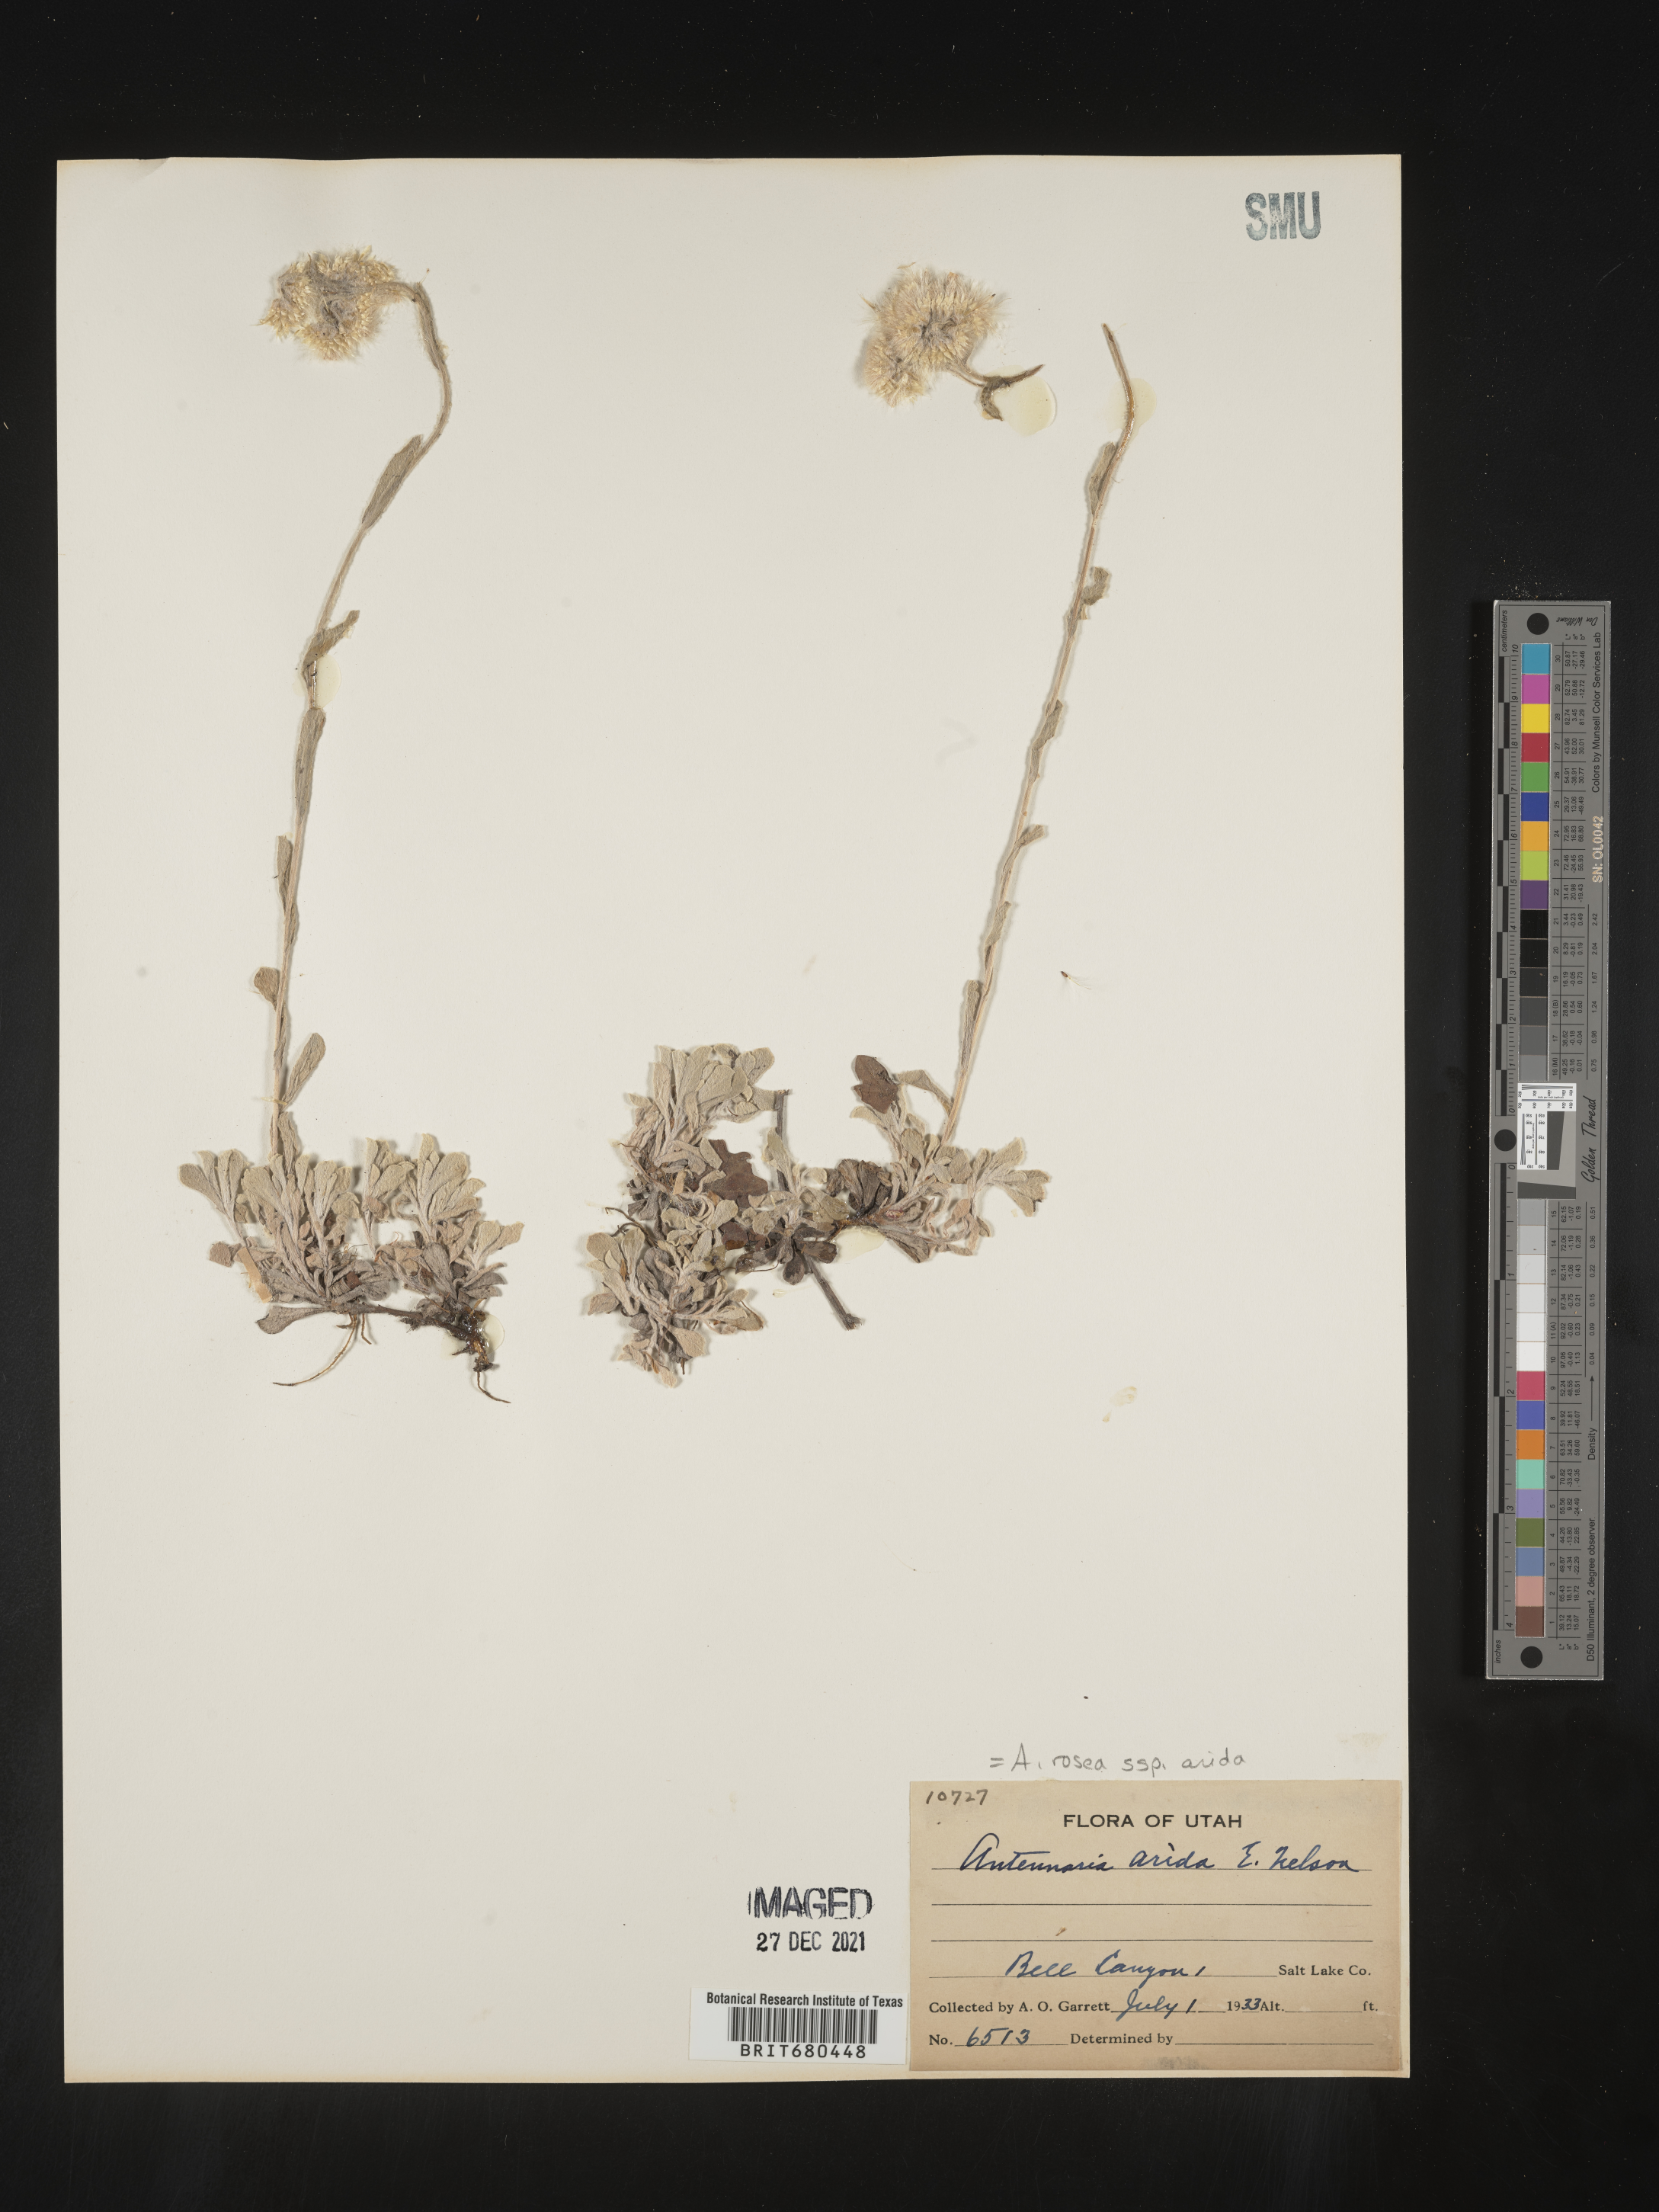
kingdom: Plantae
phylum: Tracheophyta
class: Magnoliopsida
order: Asterales
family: Asteraceae
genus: Antennaria
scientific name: Antennaria rosea
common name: Rosy pussytoes
